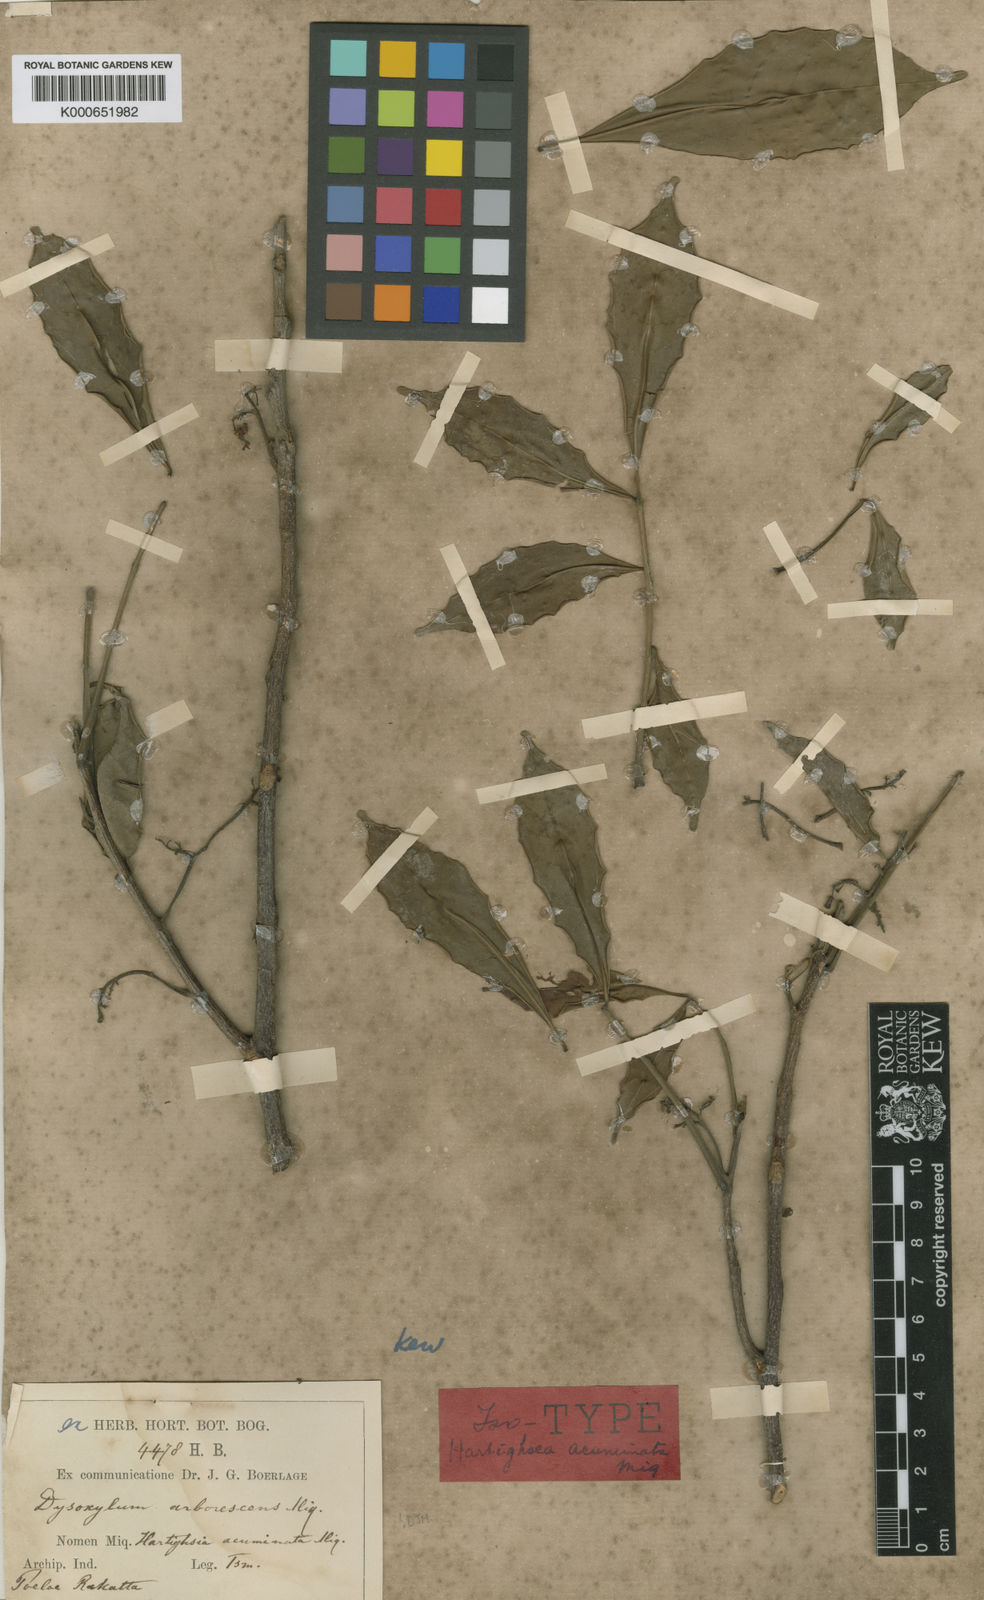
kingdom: Plantae
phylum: Tracheophyta
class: Magnoliopsida
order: Sapindales
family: Meliaceae
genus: Goniocheton
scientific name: Goniocheton arborescens
